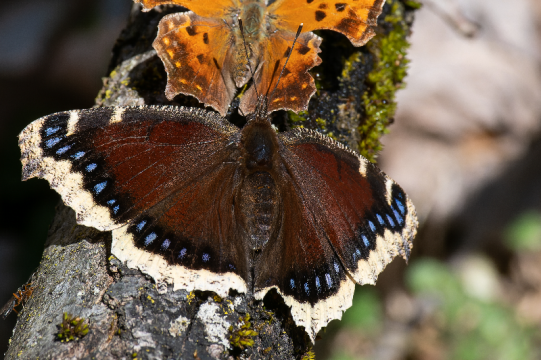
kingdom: Animalia
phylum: Arthropoda
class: Insecta
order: Lepidoptera
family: Nymphalidae
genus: Nymphalis
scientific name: Nymphalis antiopa
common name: Mourning Cloak
